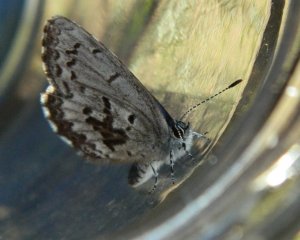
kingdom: Animalia
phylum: Arthropoda
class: Insecta
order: Lepidoptera
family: Lycaenidae
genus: Celastrina
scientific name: Celastrina lucia
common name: Northern Spring Azure
